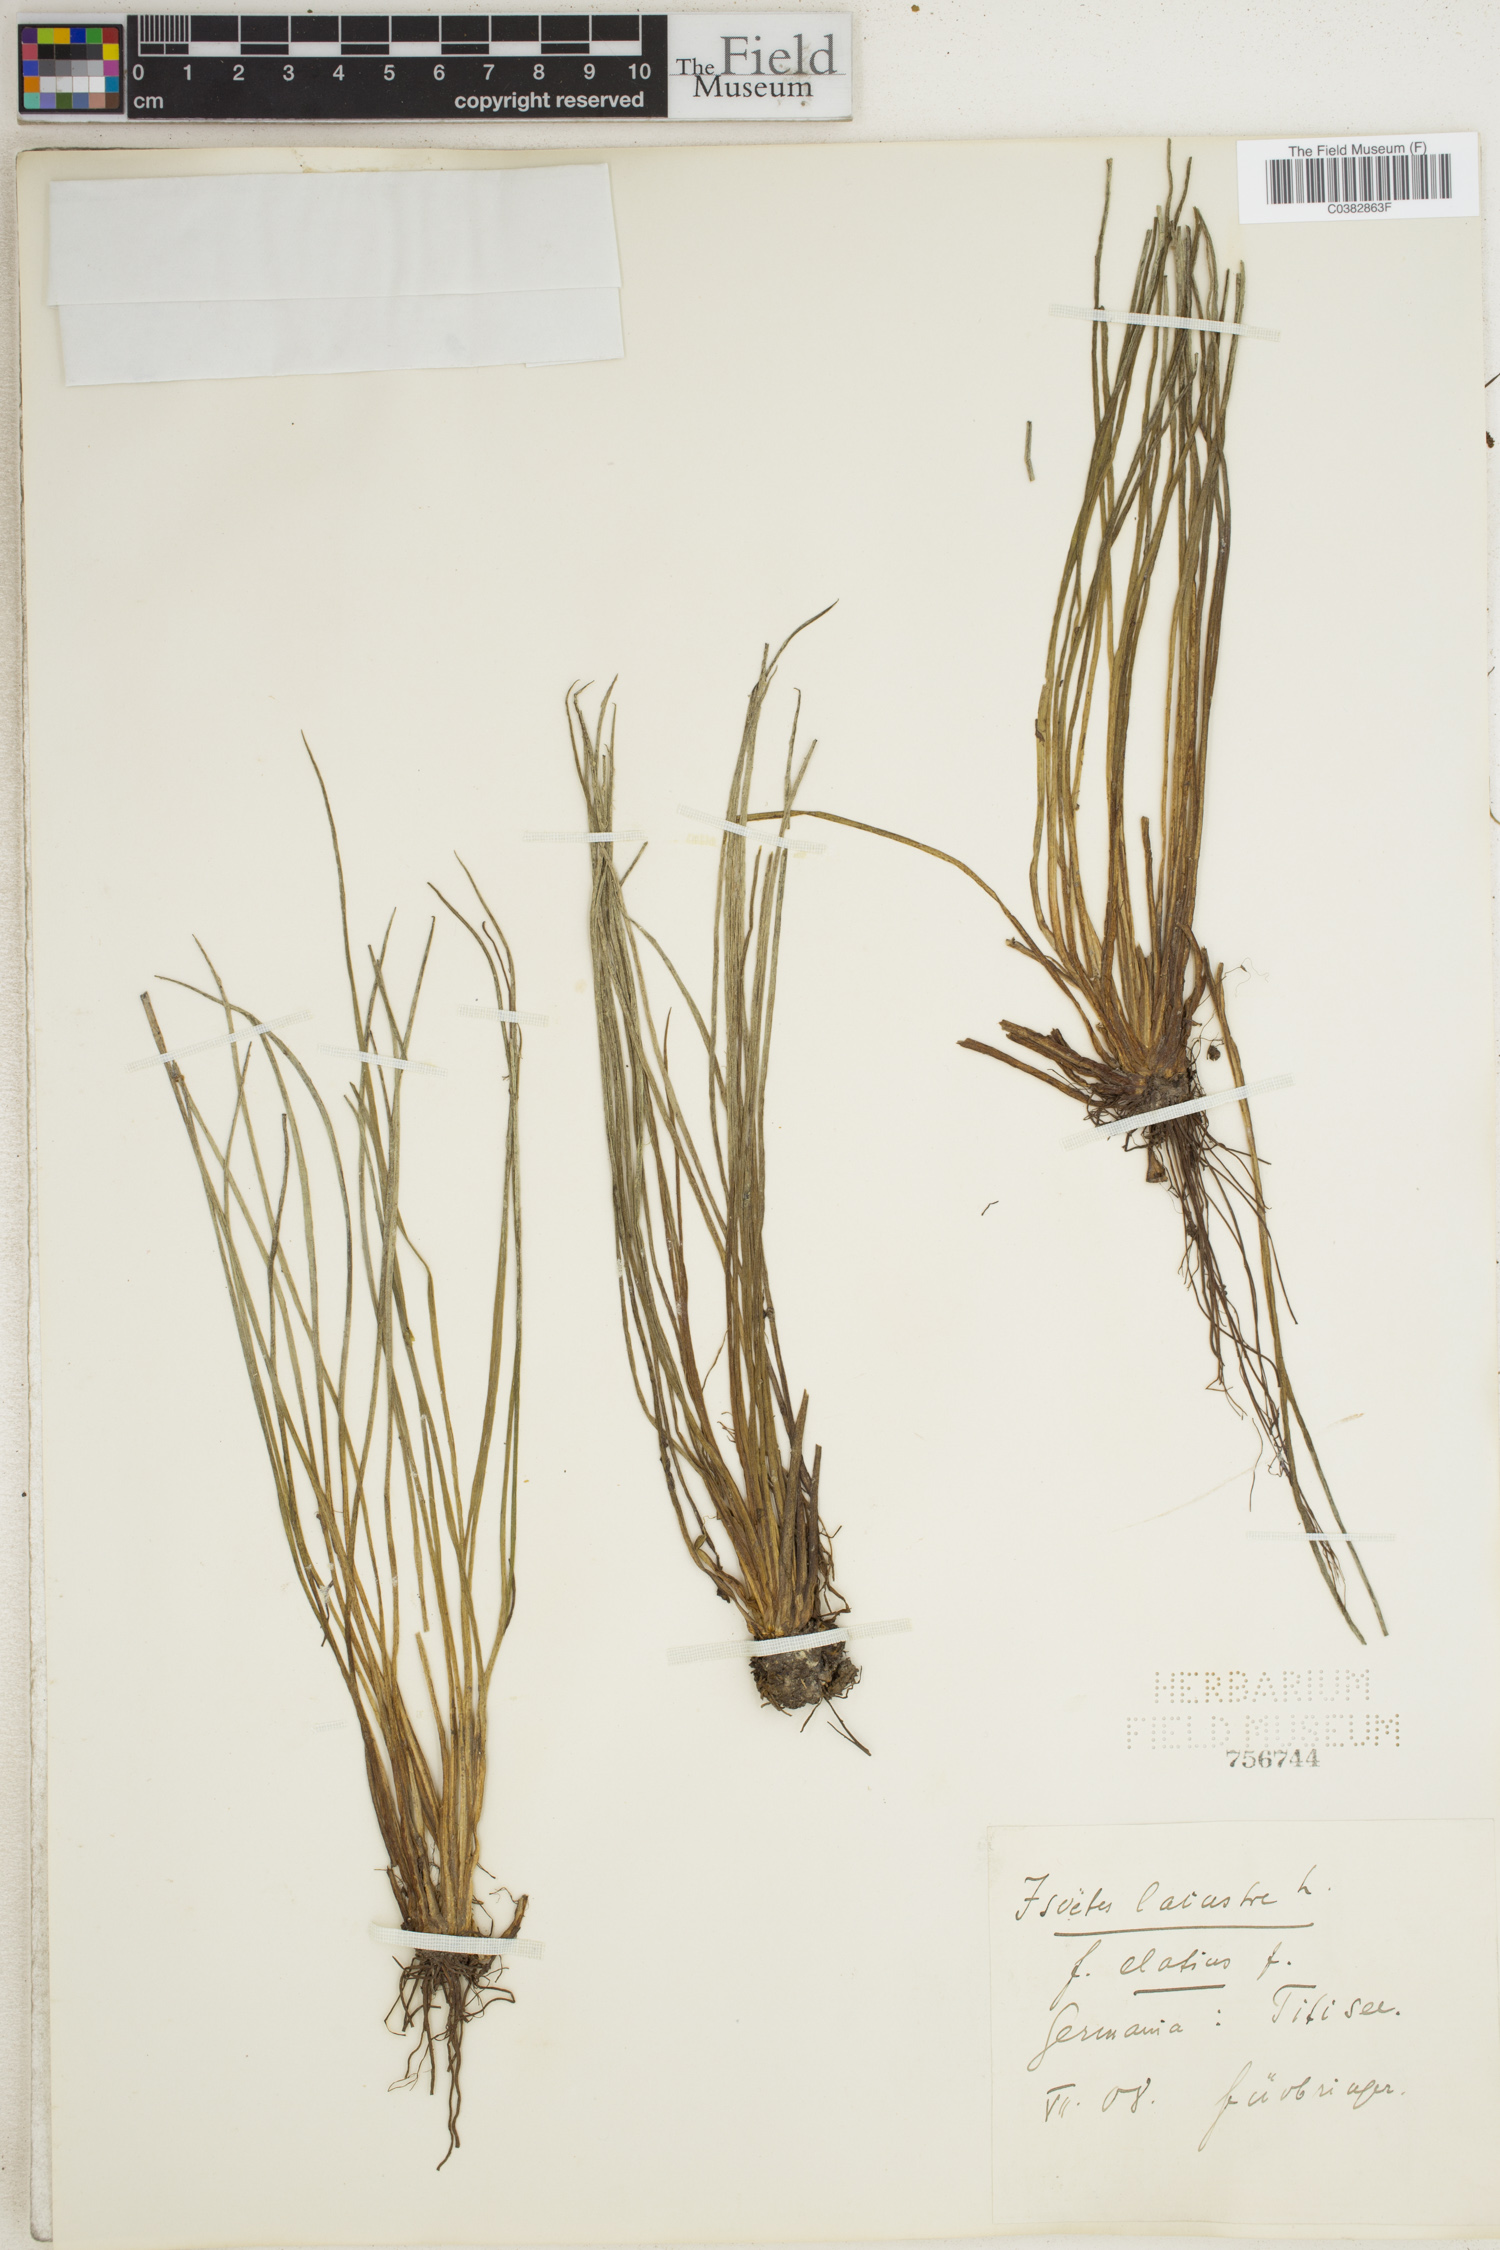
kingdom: Plantae
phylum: Tracheophyta
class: Lycopodiopsida
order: Isoetales
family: Isoetaceae
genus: Isoetes
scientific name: Isoetes lacustris
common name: Common quillwort
